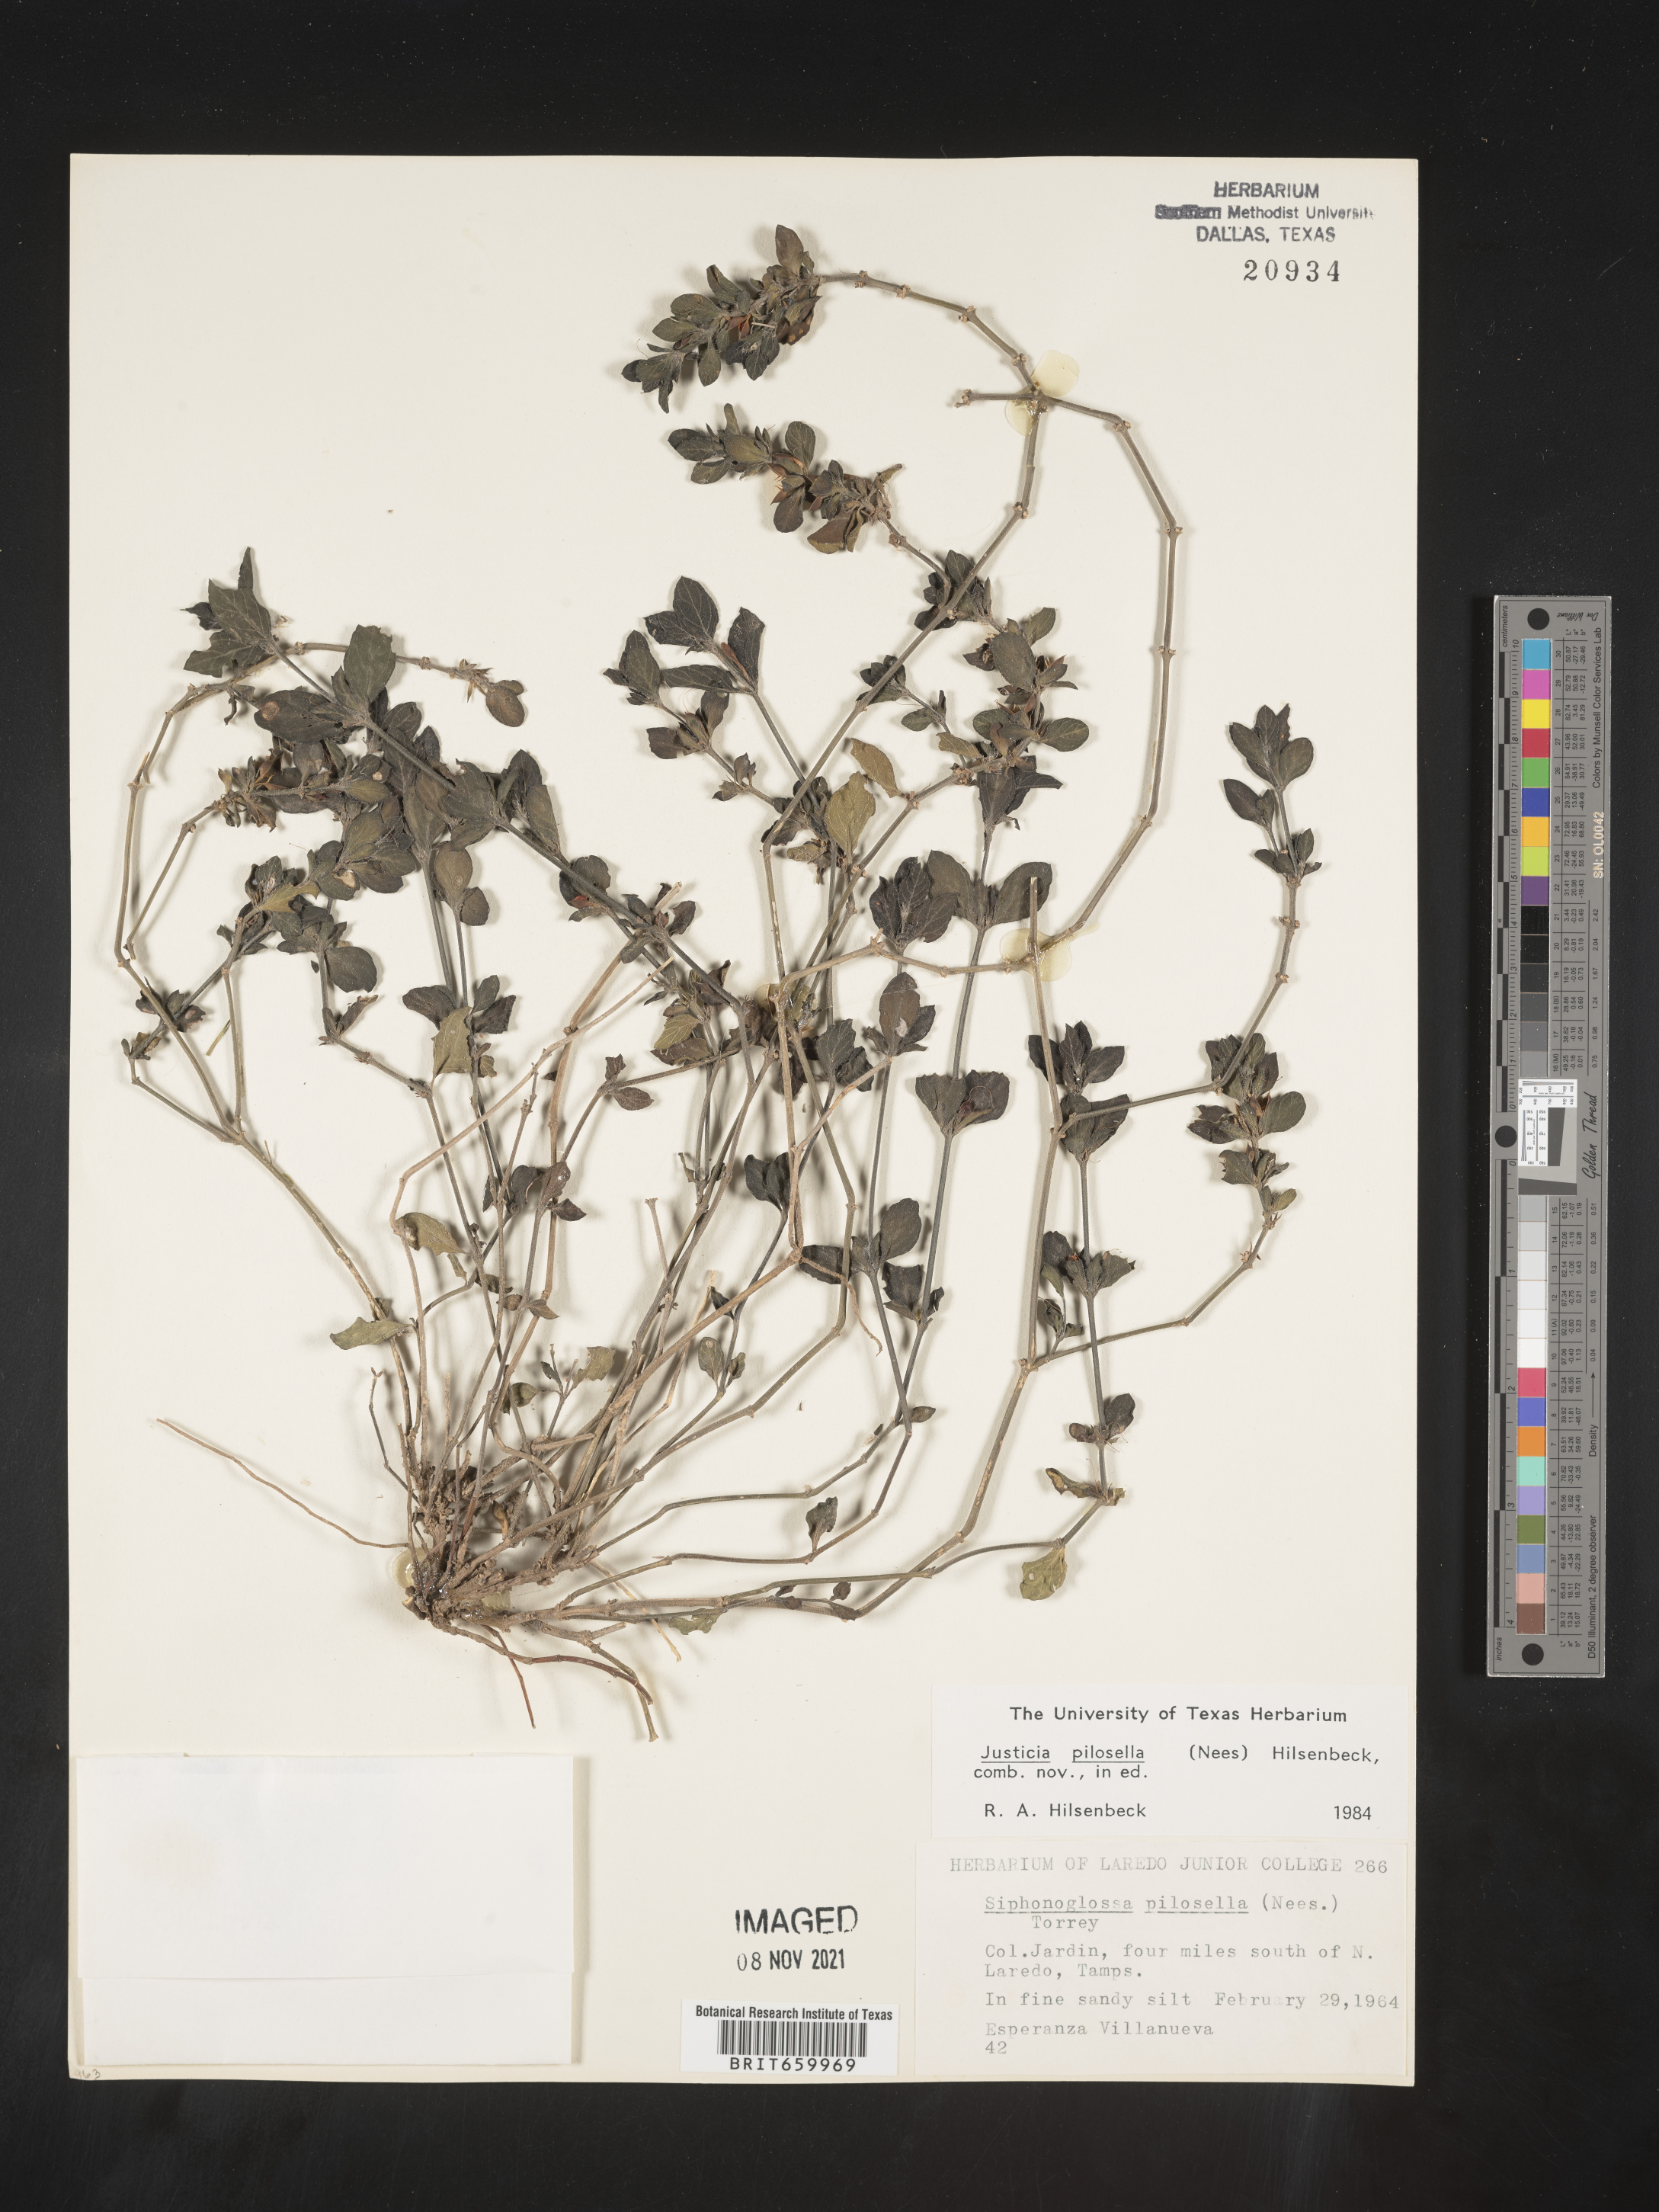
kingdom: Plantae
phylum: Tracheophyta
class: Magnoliopsida
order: Lamiales
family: Acanthaceae
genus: Justicia
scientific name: Justicia
